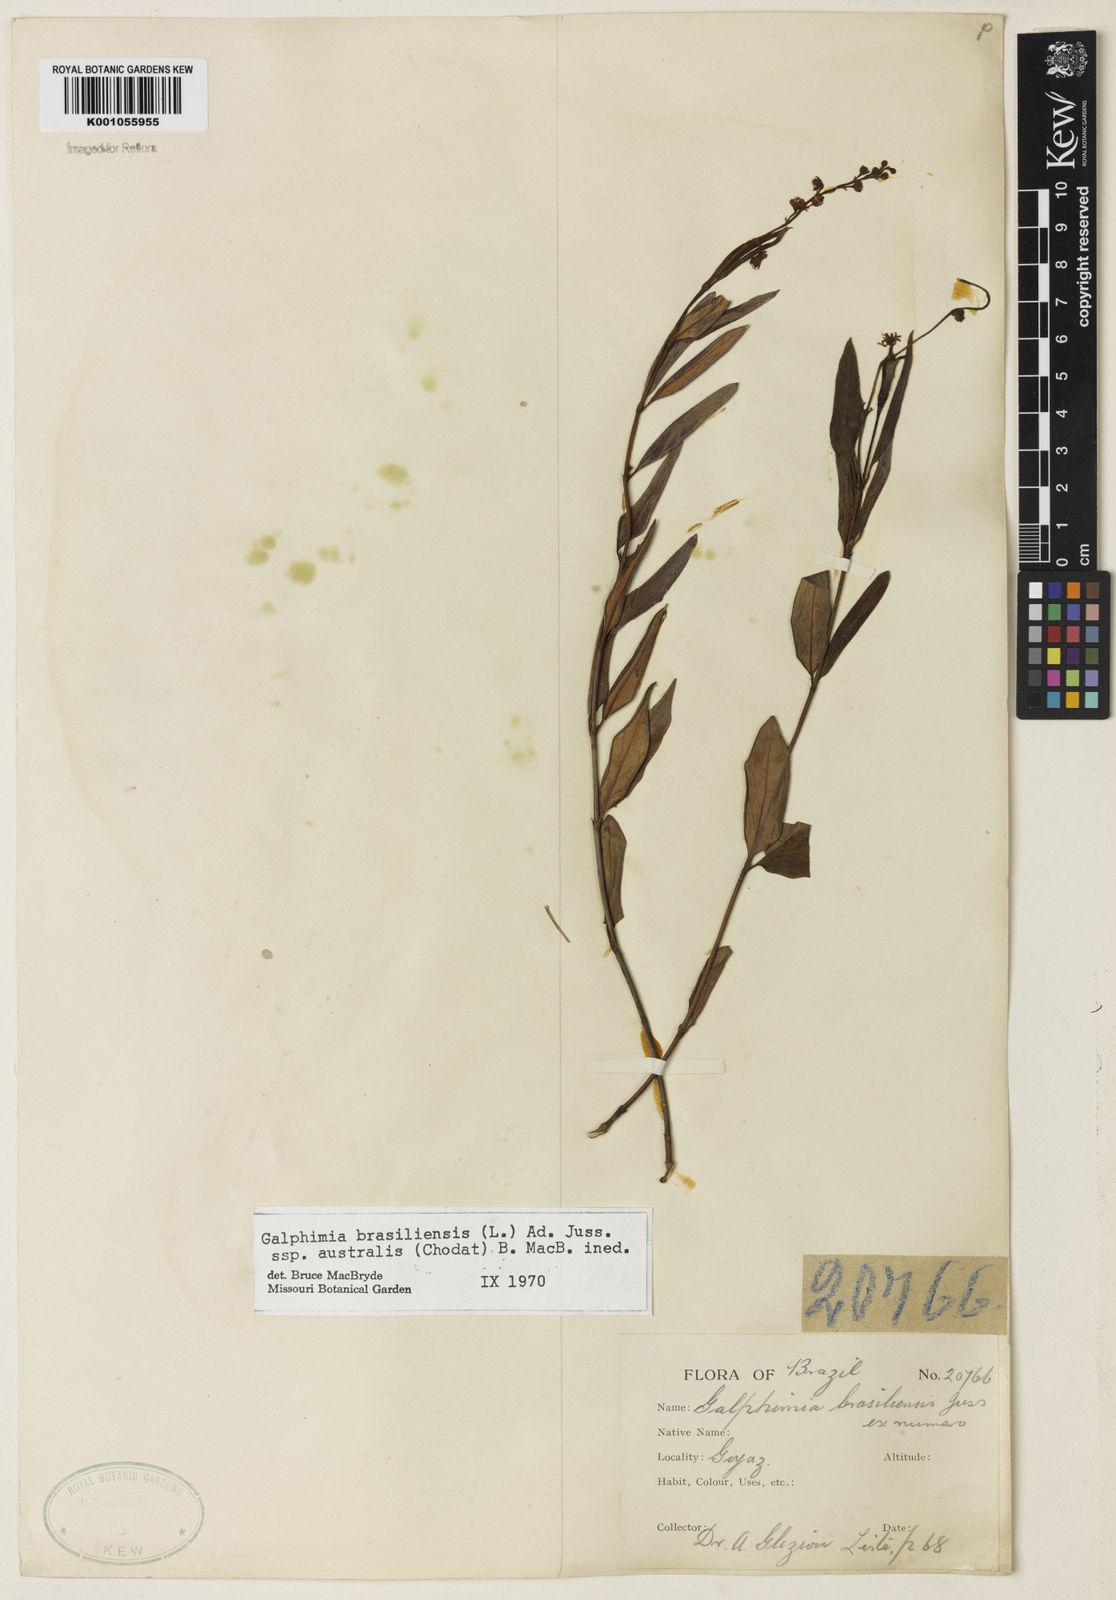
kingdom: Plantae
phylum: Tracheophyta
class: Magnoliopsida
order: Malpighiales
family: Malpighiaceae
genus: Galphimia
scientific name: Galphimia brasiliensis
